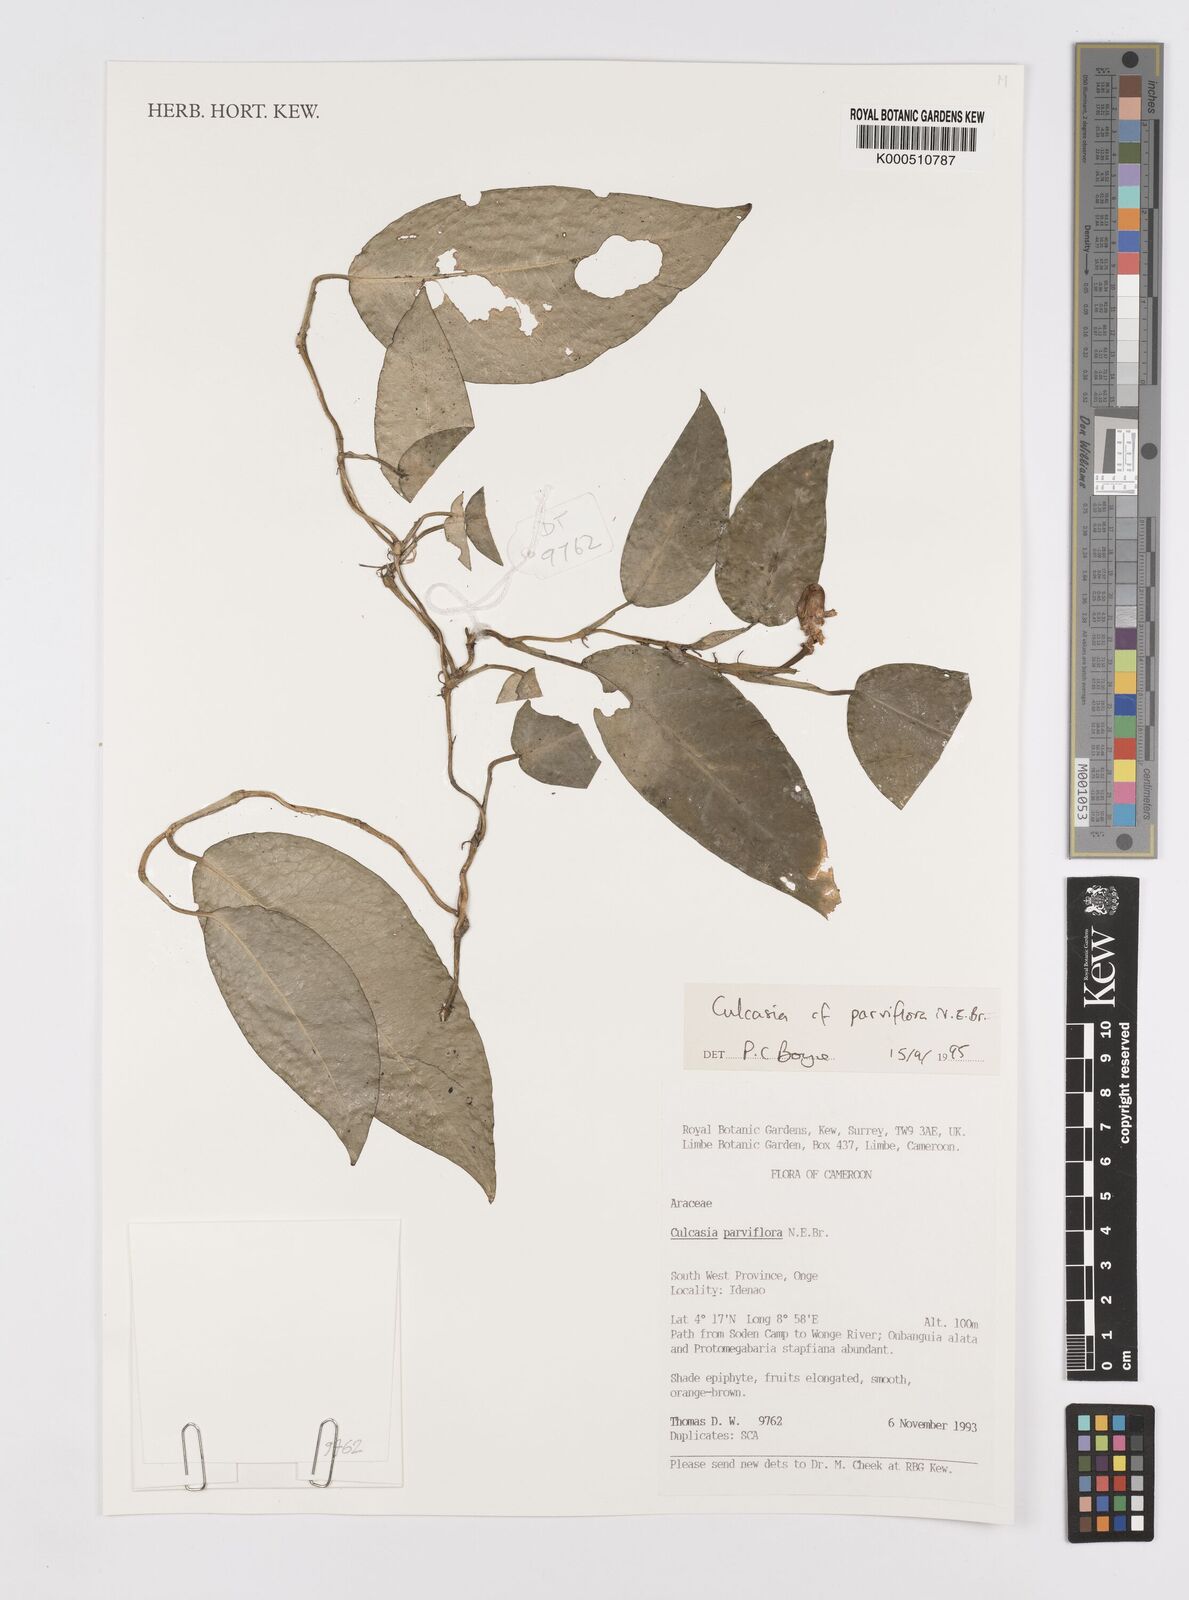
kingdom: Plantae
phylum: Tracheophyta
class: Liliopsida
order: Alismatales
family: Araceae
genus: Culcasia
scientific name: Culcasia parviflora
